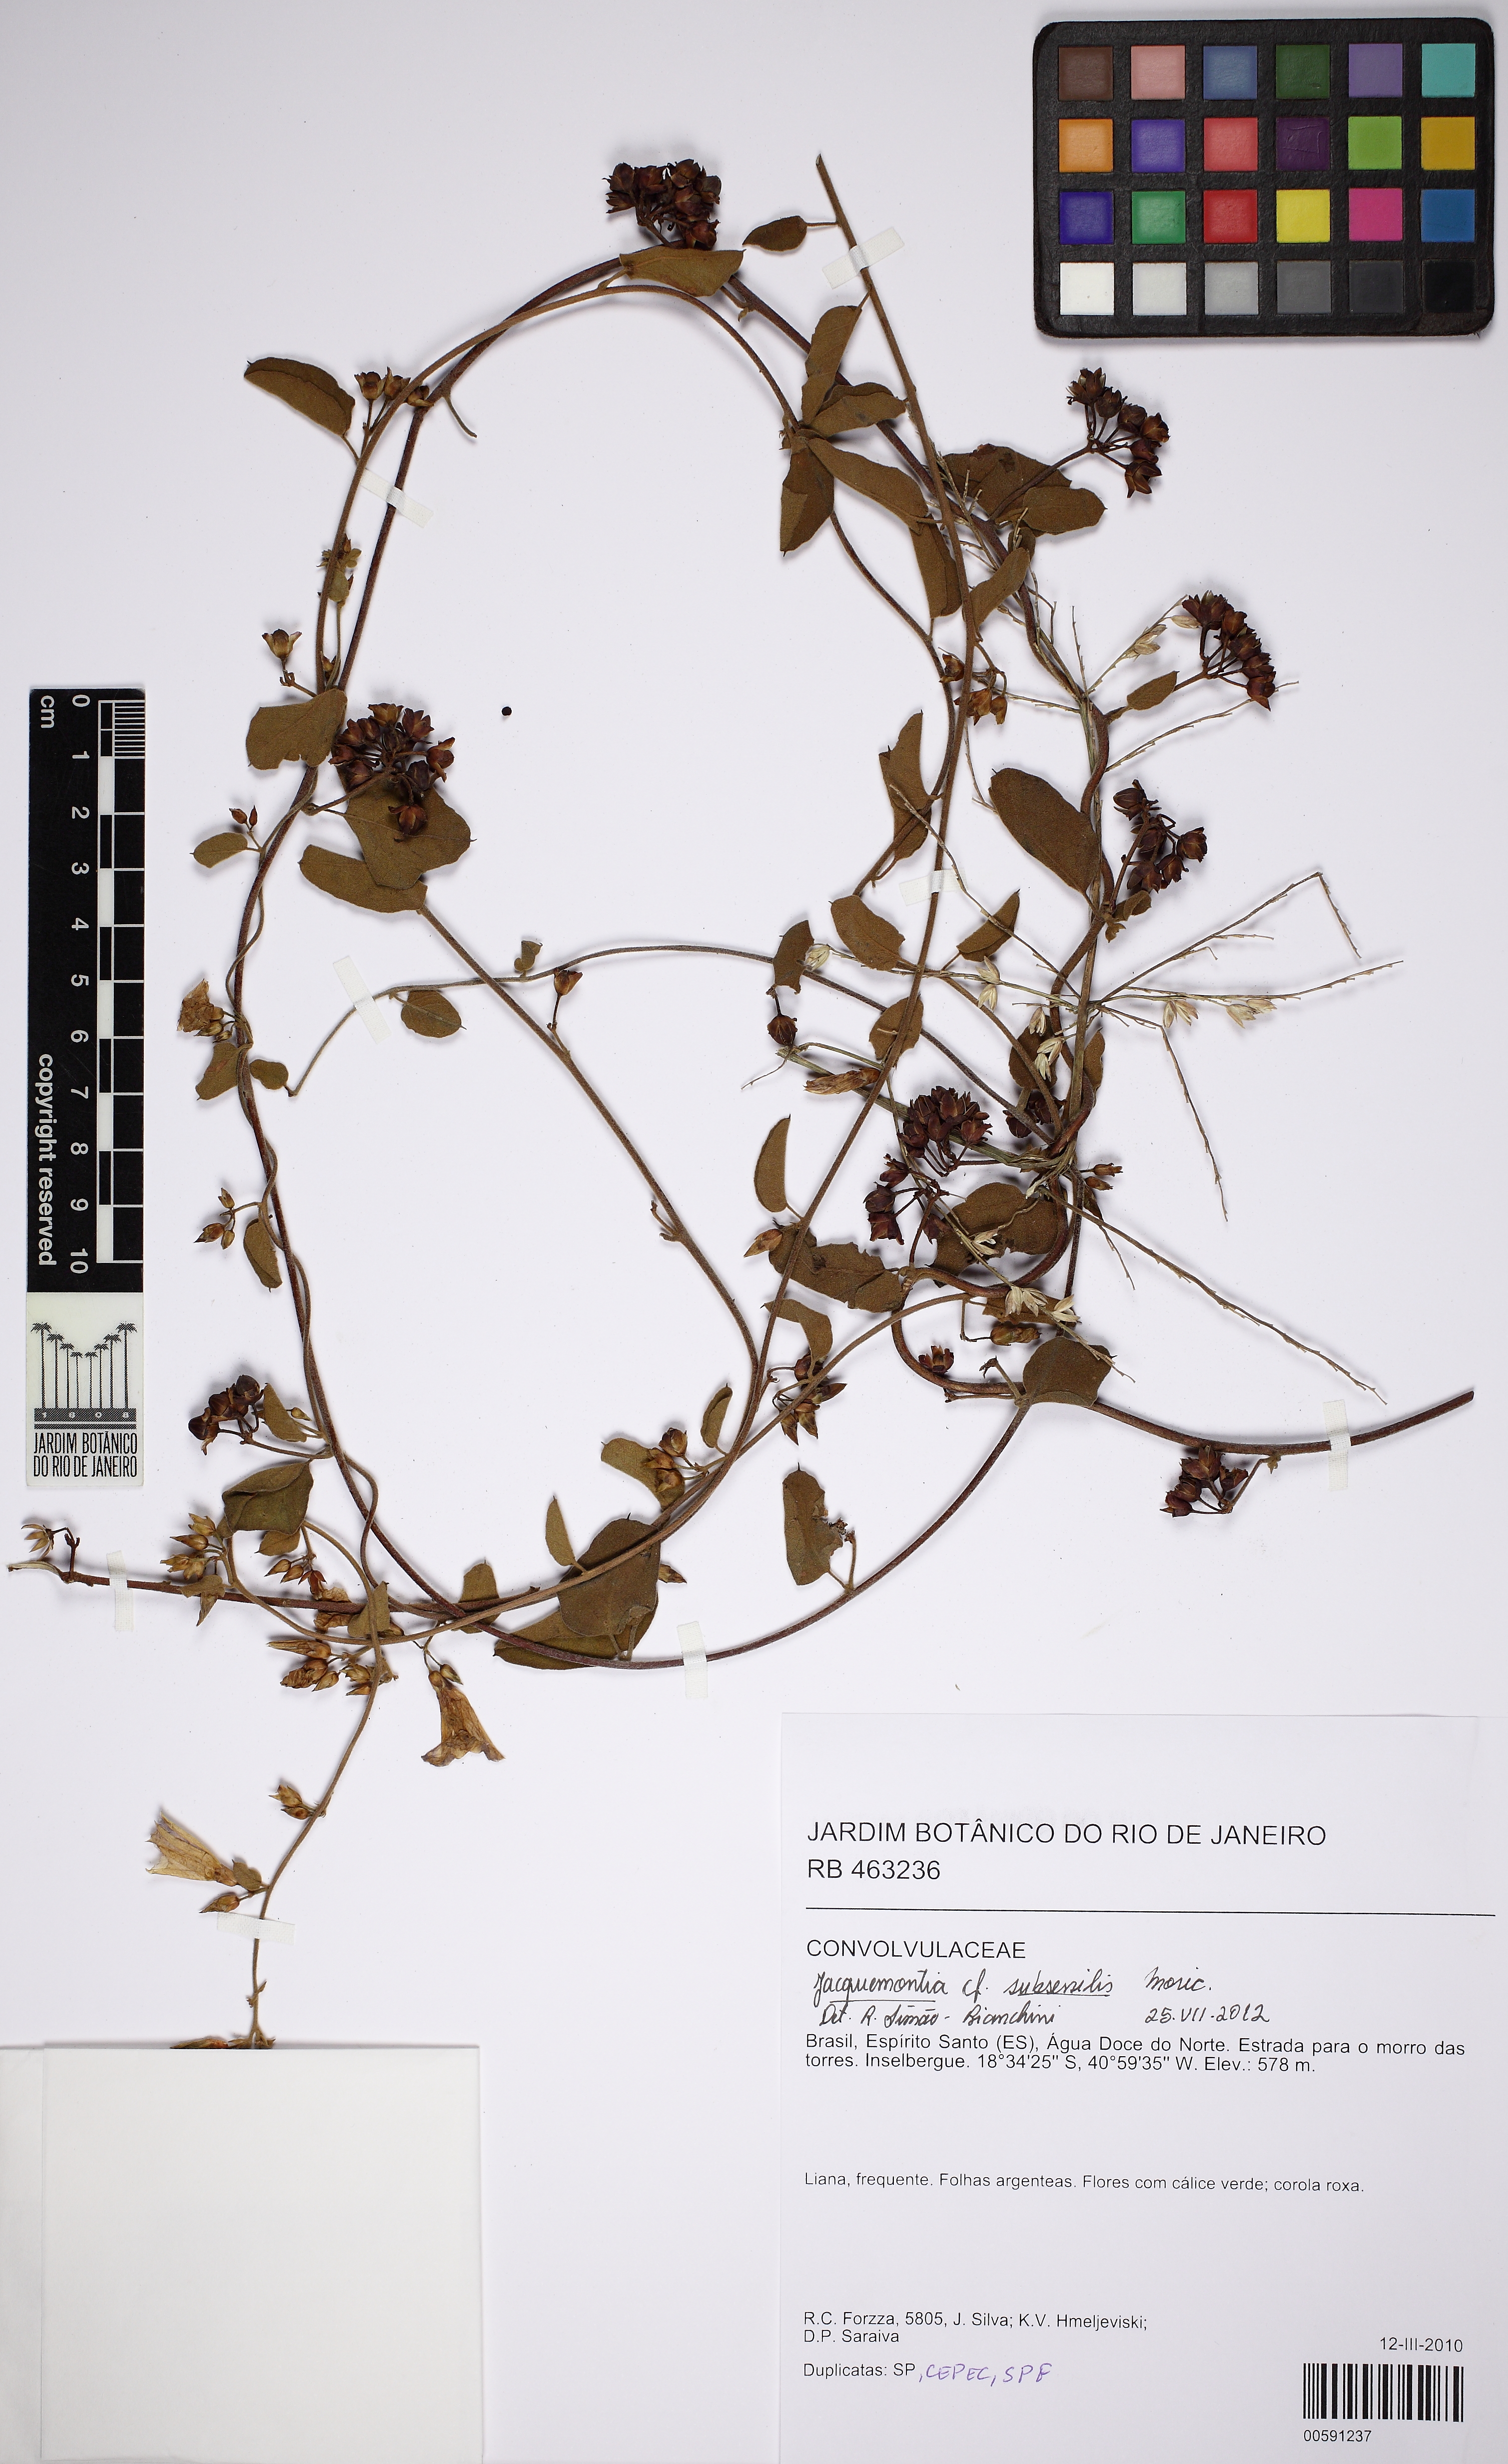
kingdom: Plantae
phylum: Tracheophyta
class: Magnoliopsida
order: Solanales
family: Convolvulaceae
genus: Jacquemontia
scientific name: Jacquemontia subsessilis
